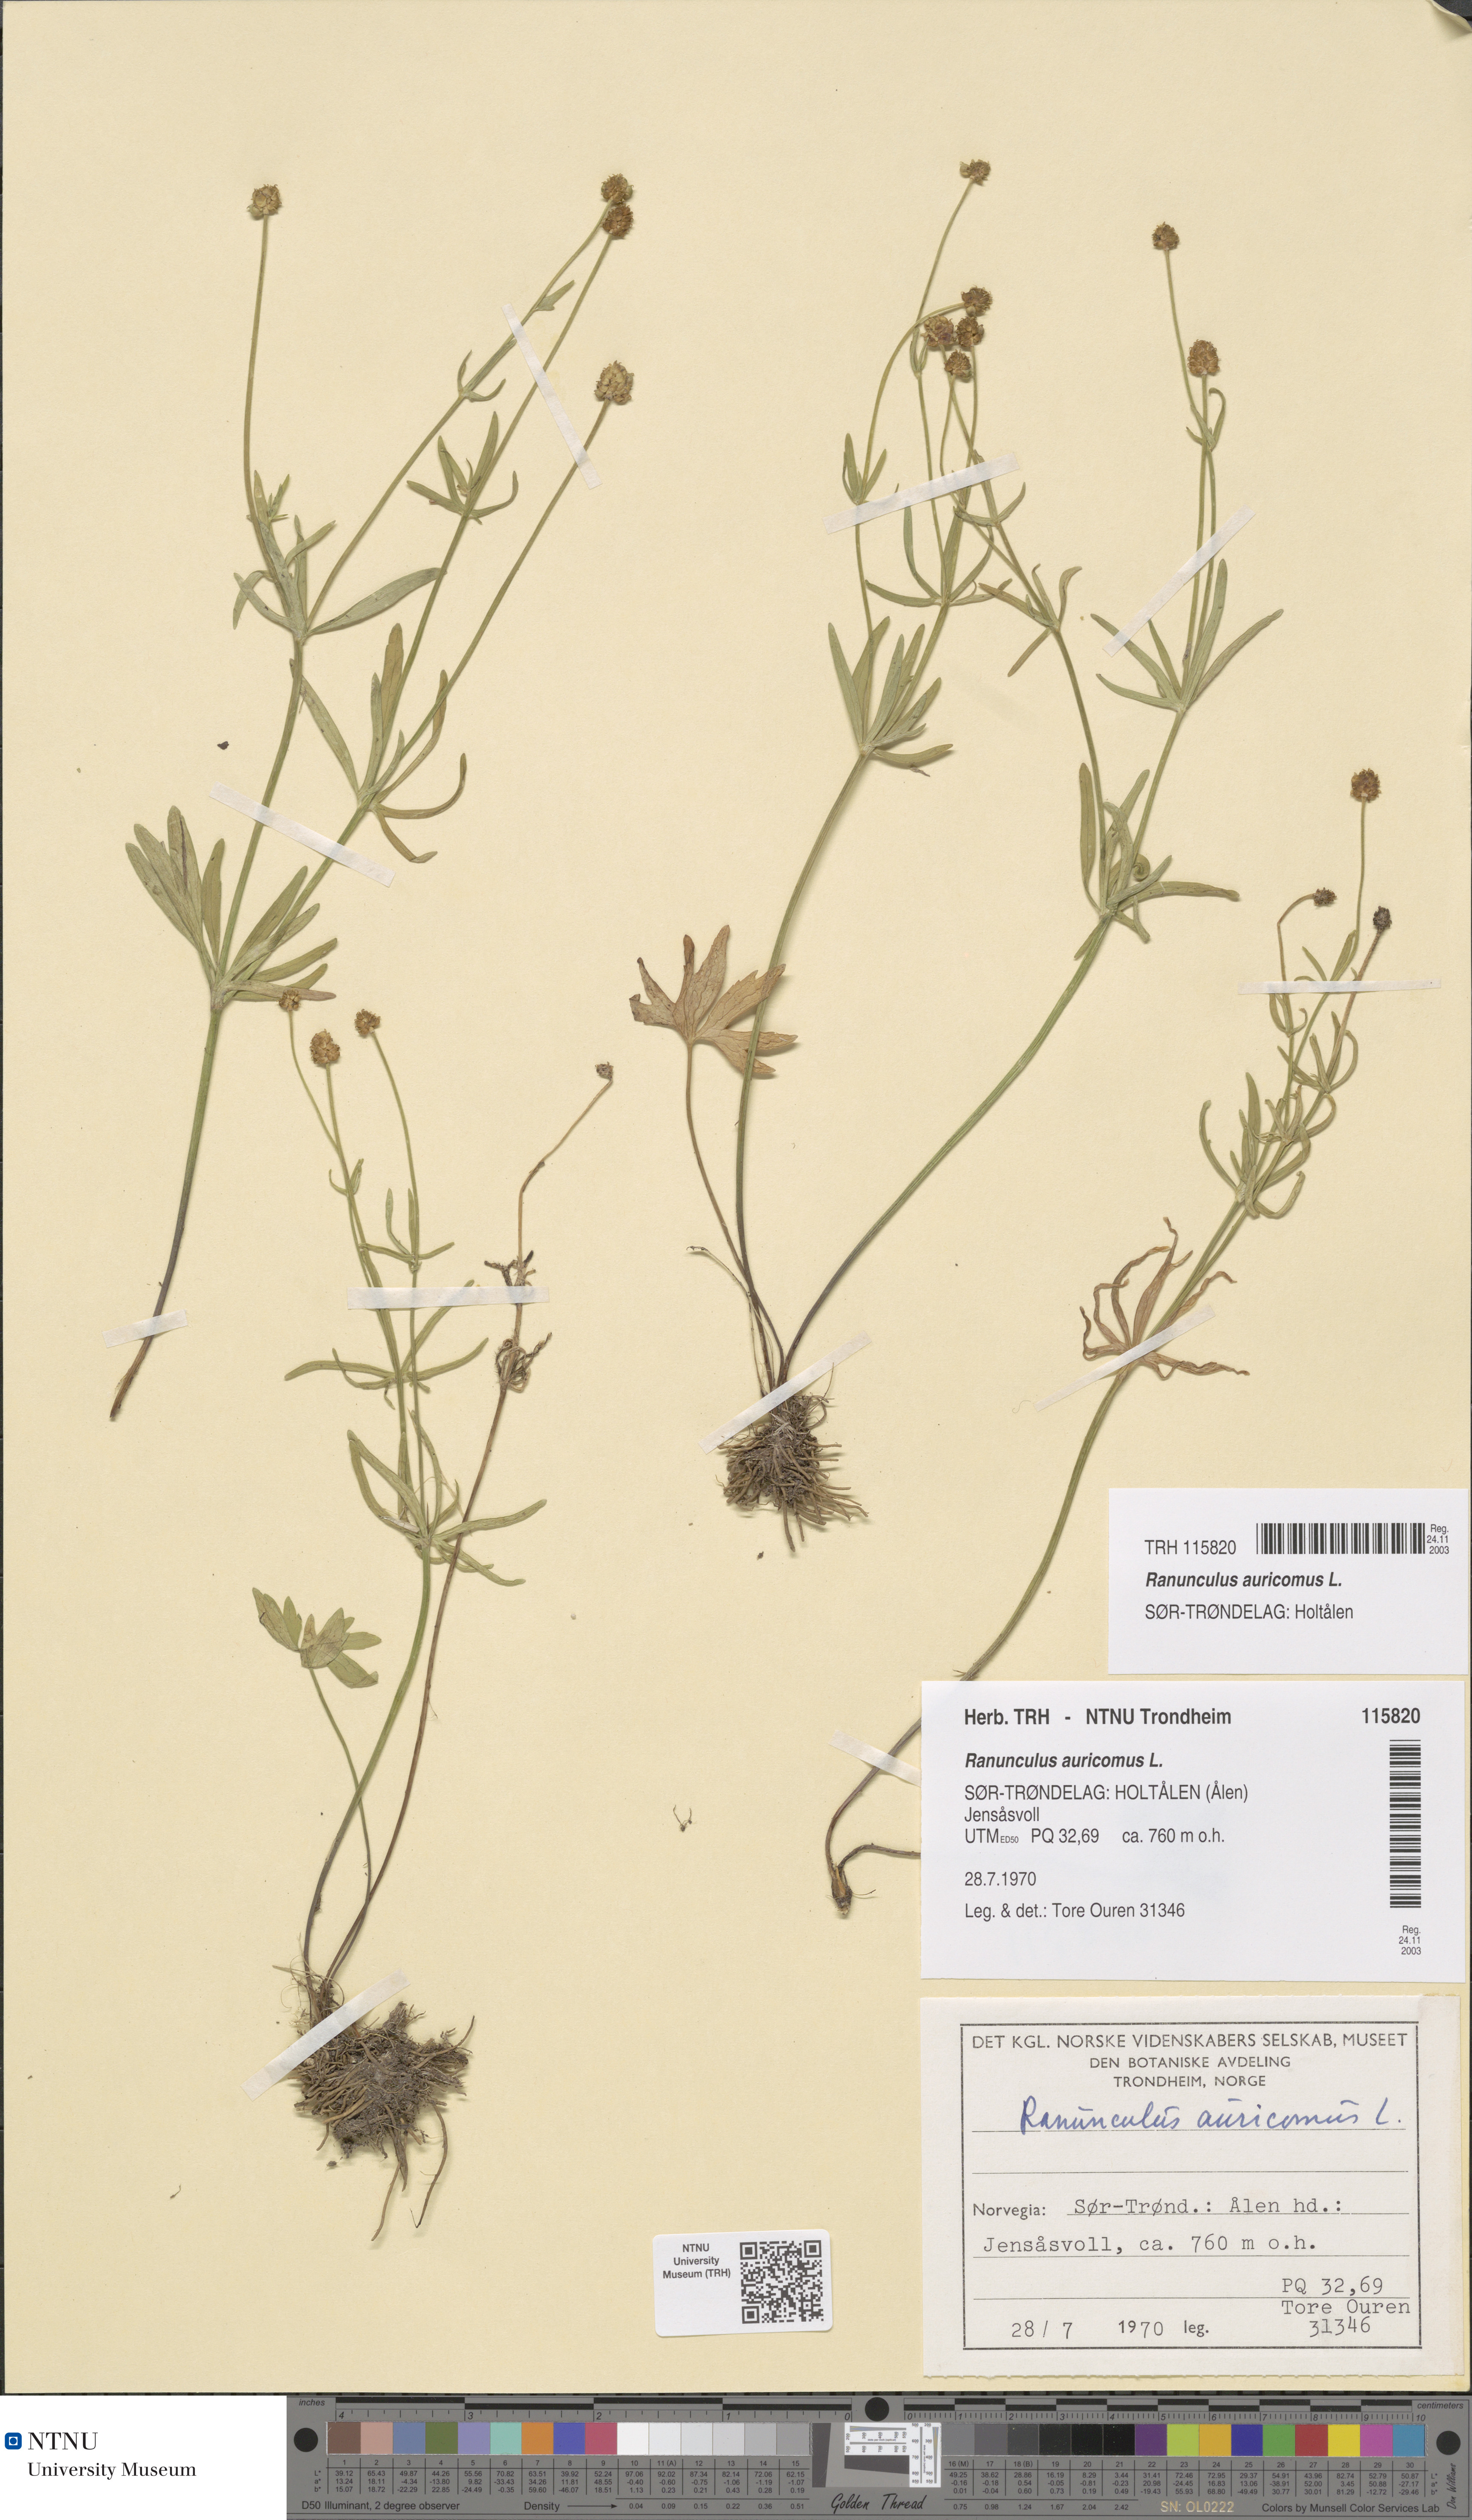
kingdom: Plantae
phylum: Tracheophyta
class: Magnoliopsida
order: Ranunculales
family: Ranunculaceae
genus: Ranunculus
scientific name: Ranunculus auricomus
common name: Goldilocks buttercup
